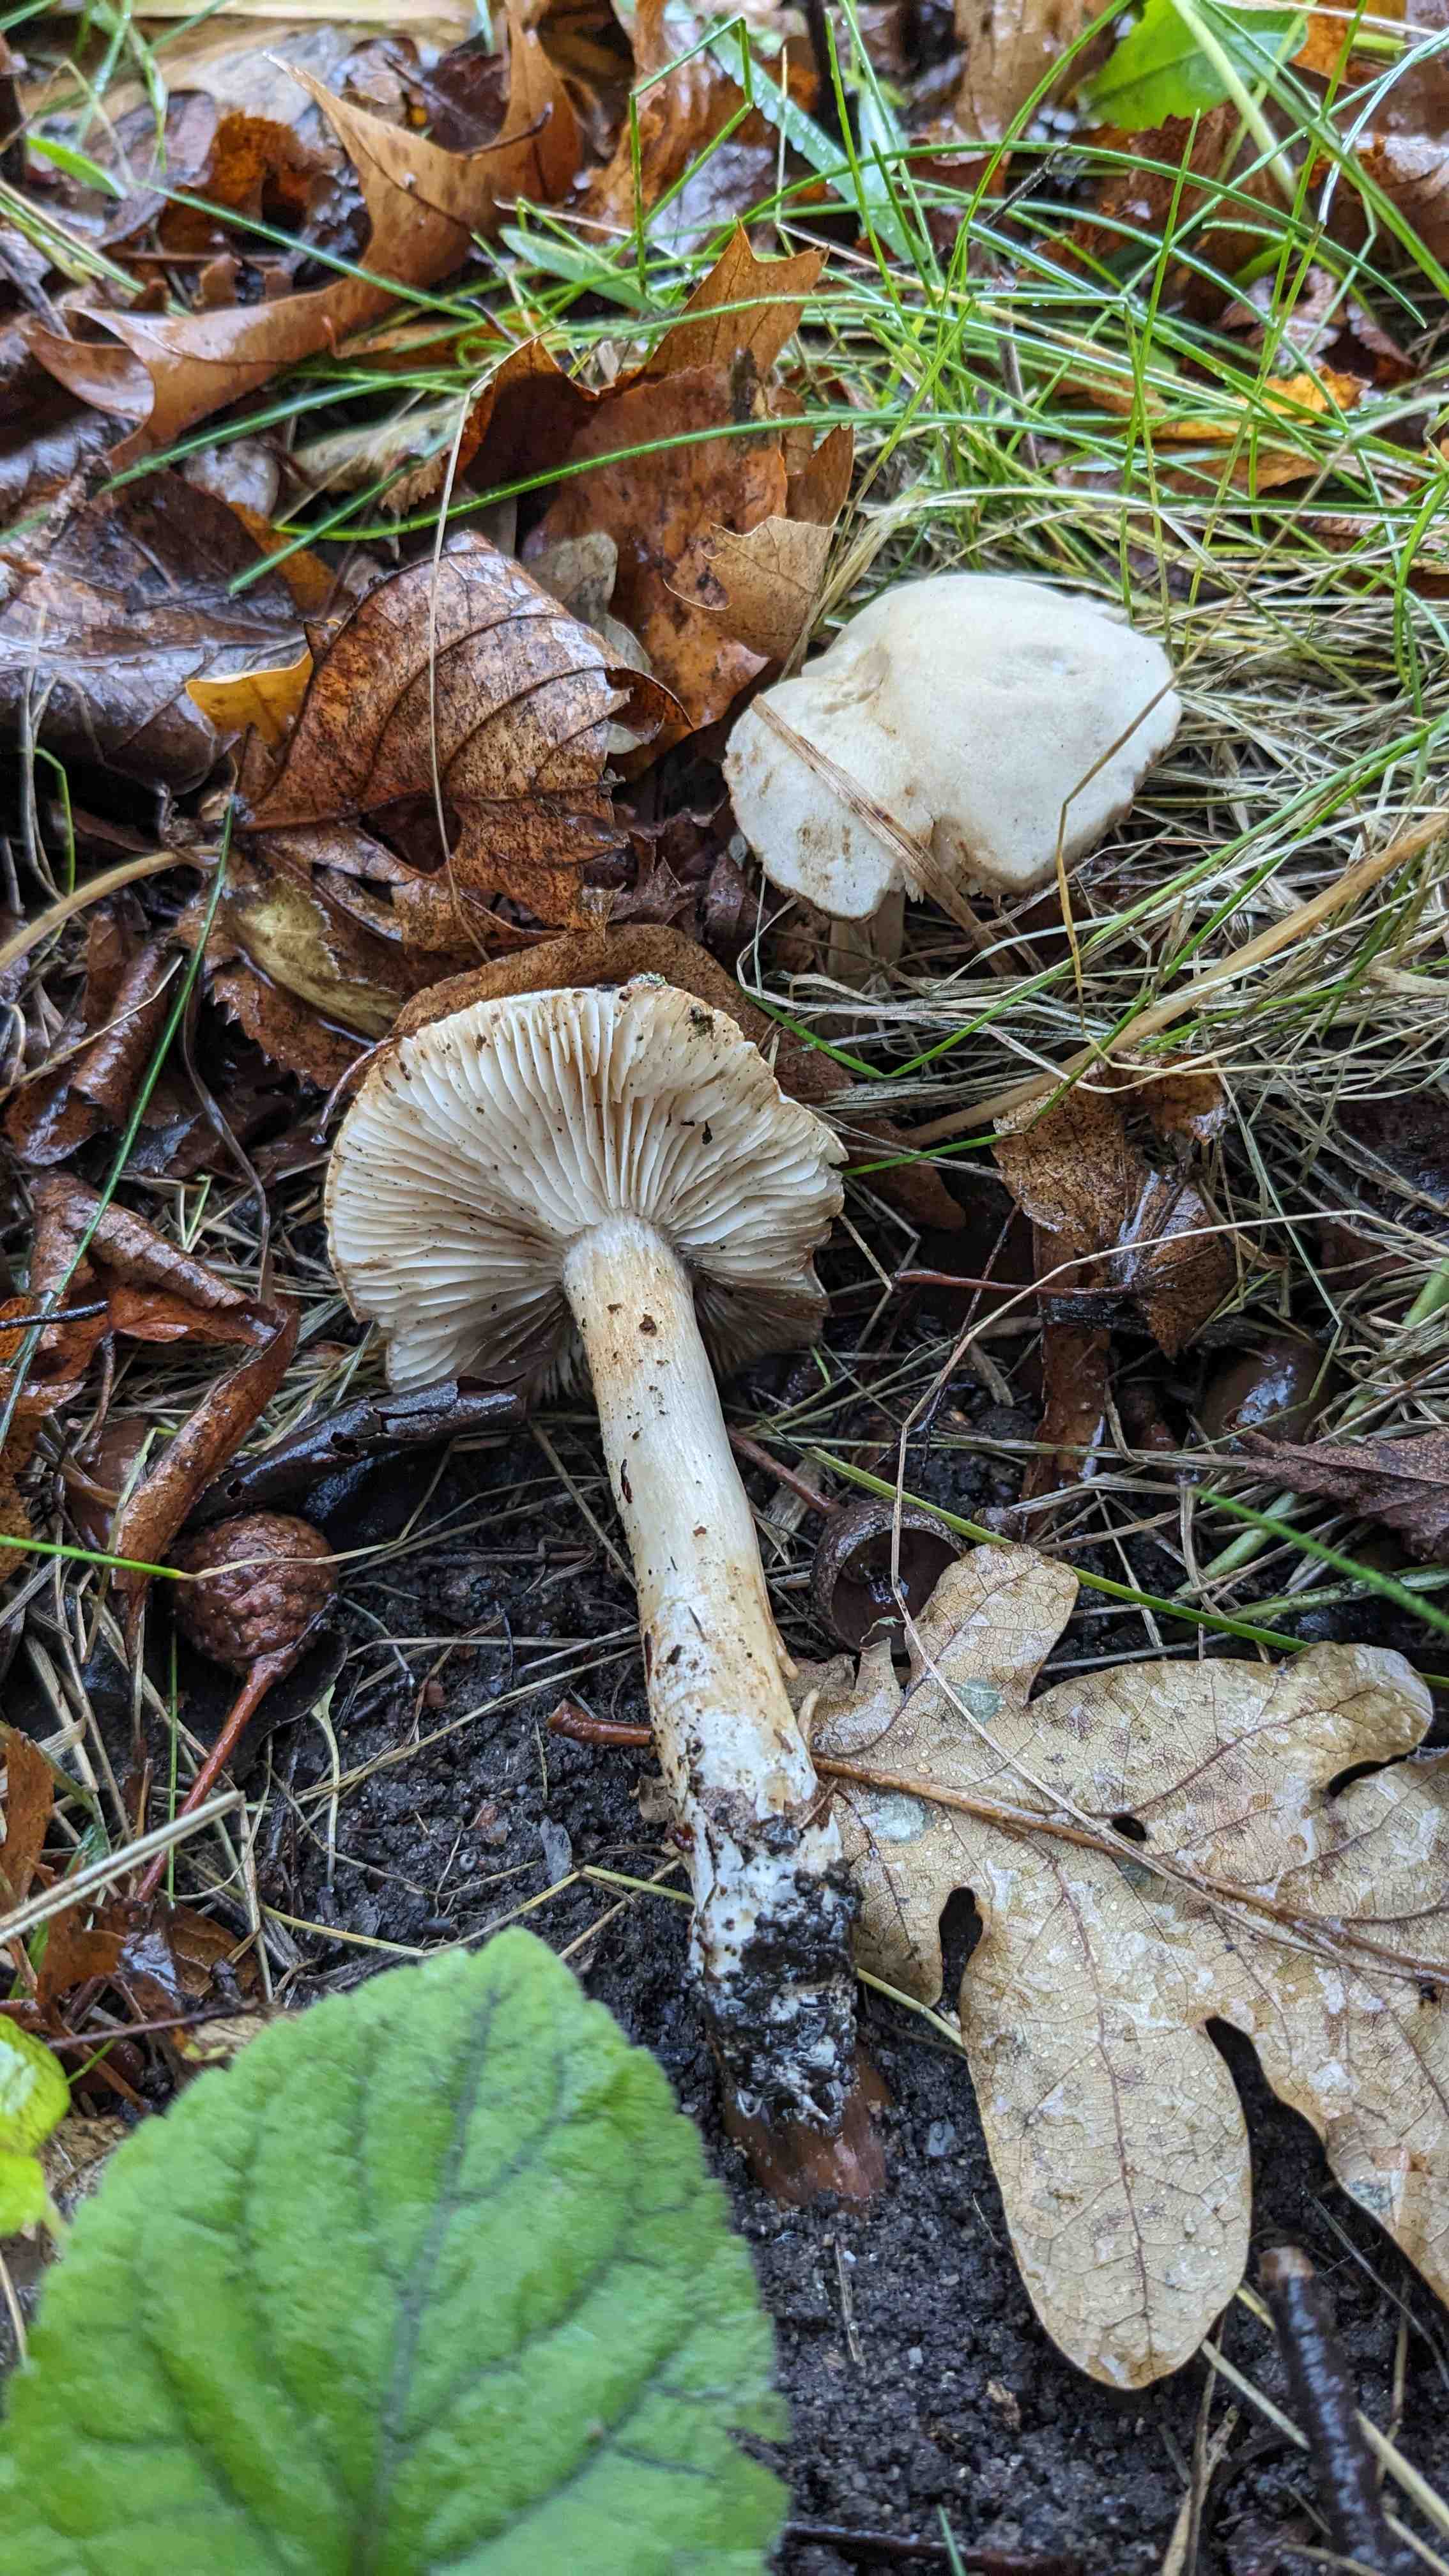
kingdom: Fungi
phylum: Basidiomycota
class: Agaricomycetes
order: Agaricales
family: Tricholomataceae
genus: Tricholoma
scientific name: Tricholoma lascivum
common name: stinkende ridderhat
